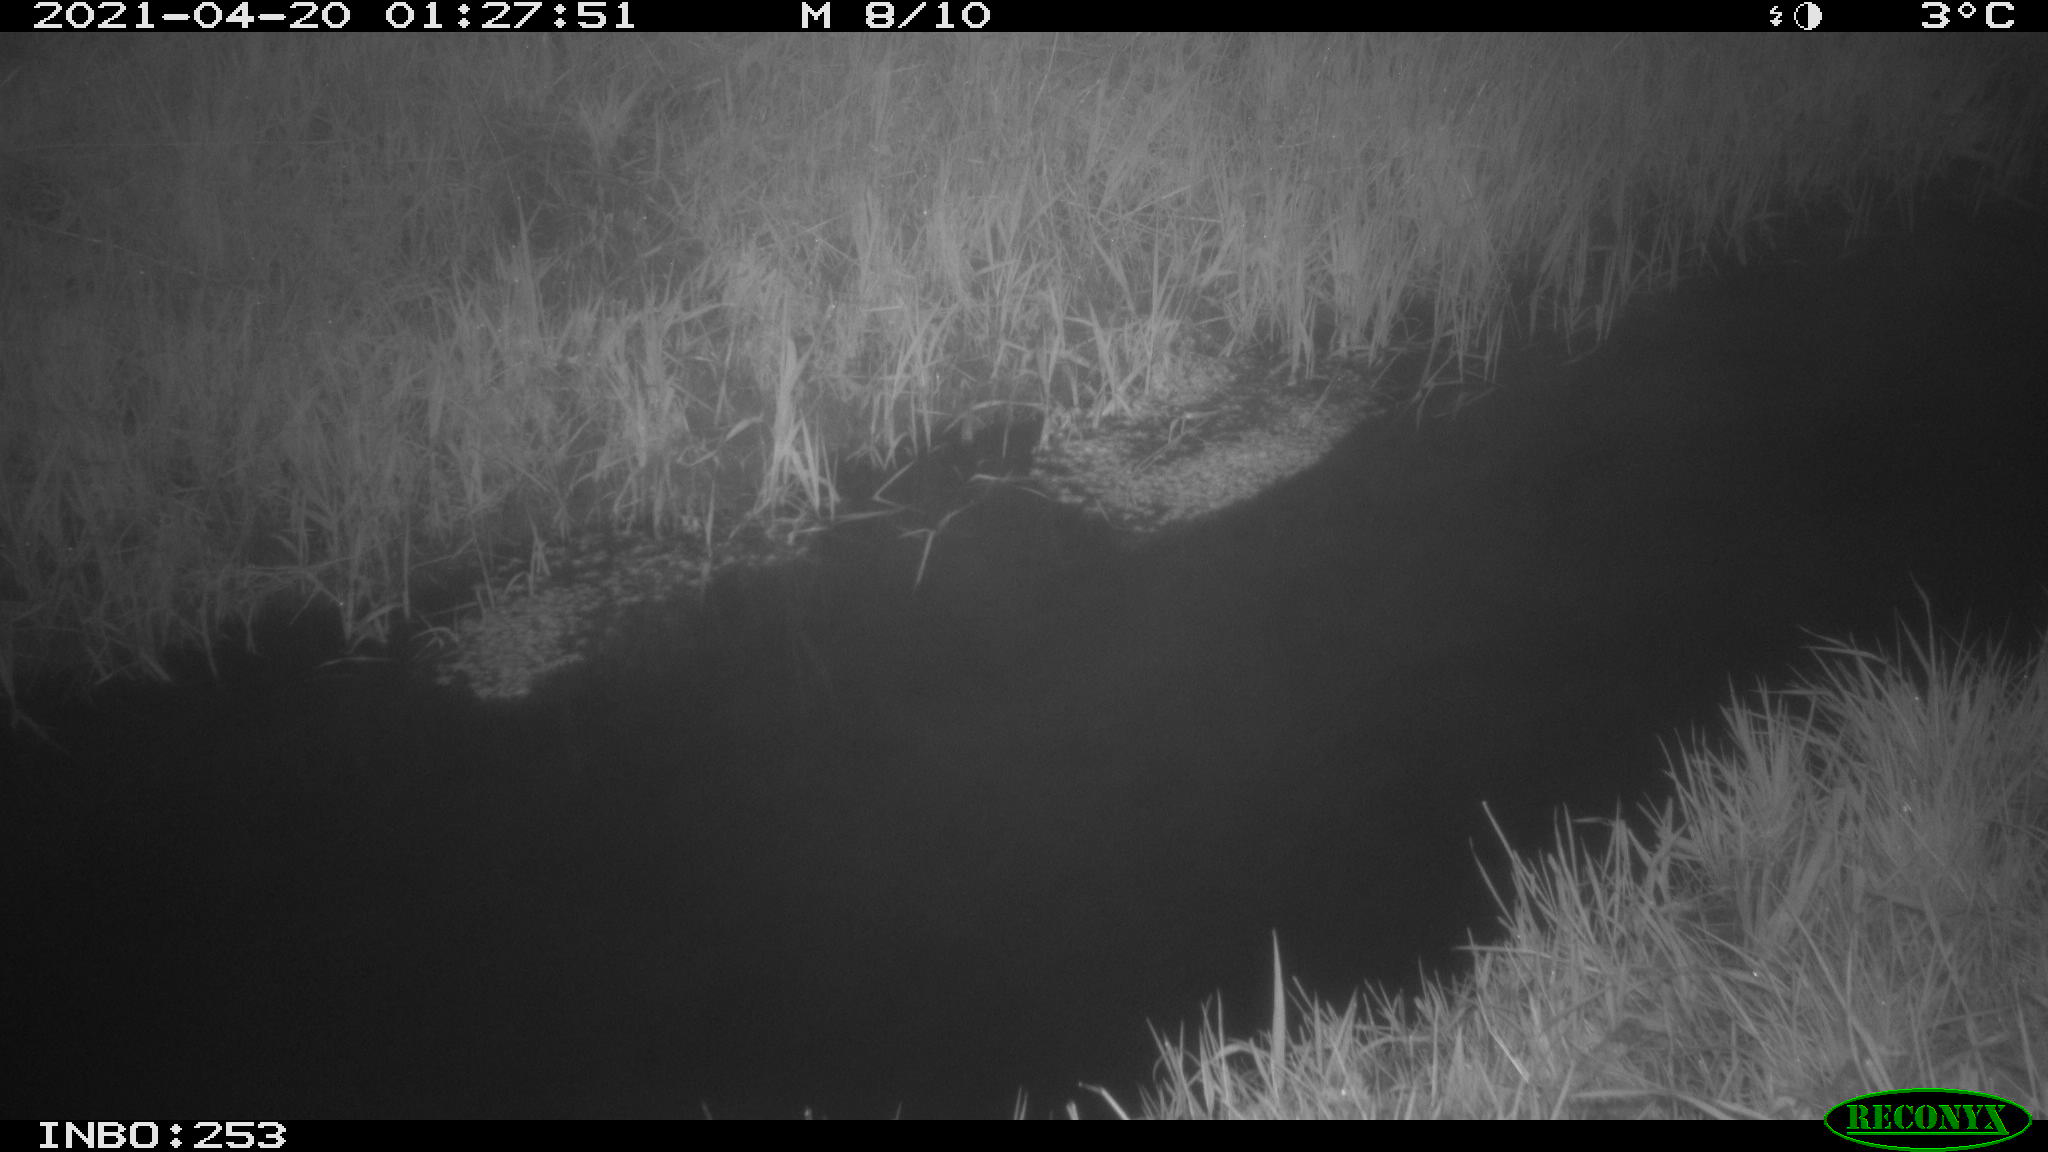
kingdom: Animalia
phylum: Chordata
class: Aves
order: Anseriformes
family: Anatidae
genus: Anas
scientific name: Anas platyrhynchos
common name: Mallard
